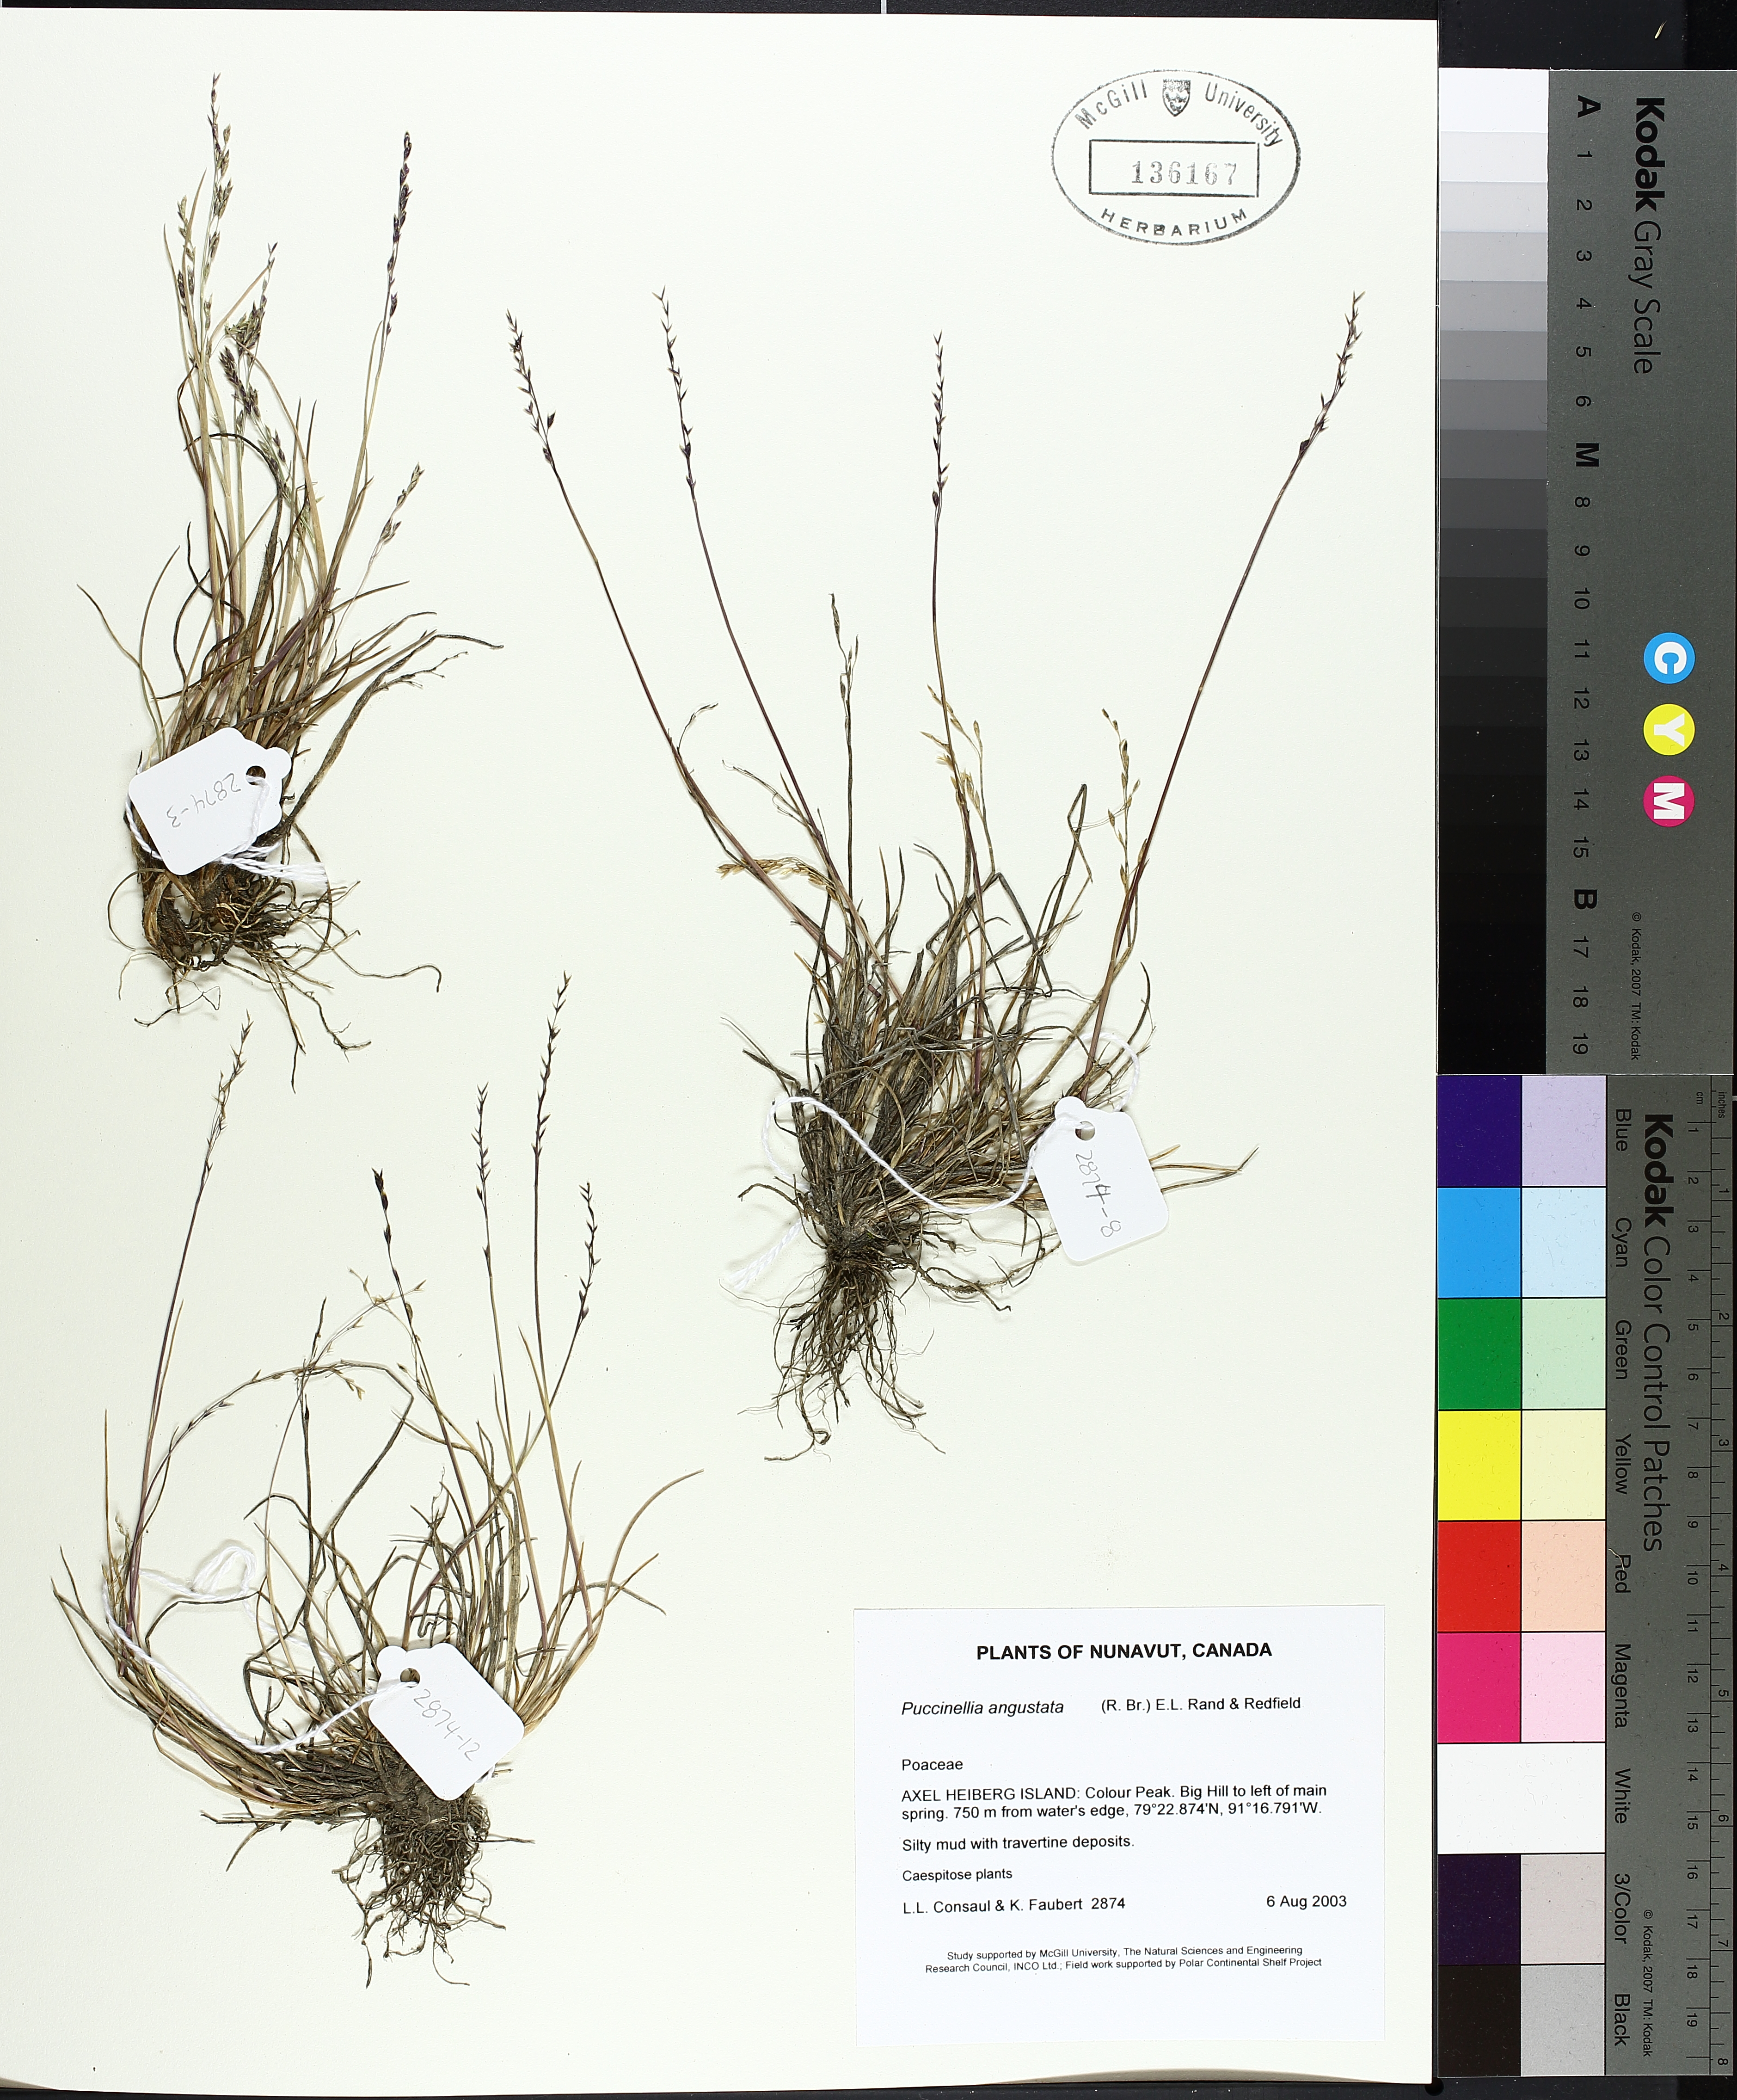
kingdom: Plantae
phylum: Tracheophyta
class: Liliopsida
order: Poales
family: Poaceae
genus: Puccinellia
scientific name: Puccinellia angustata
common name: Narrow alkaligrass
